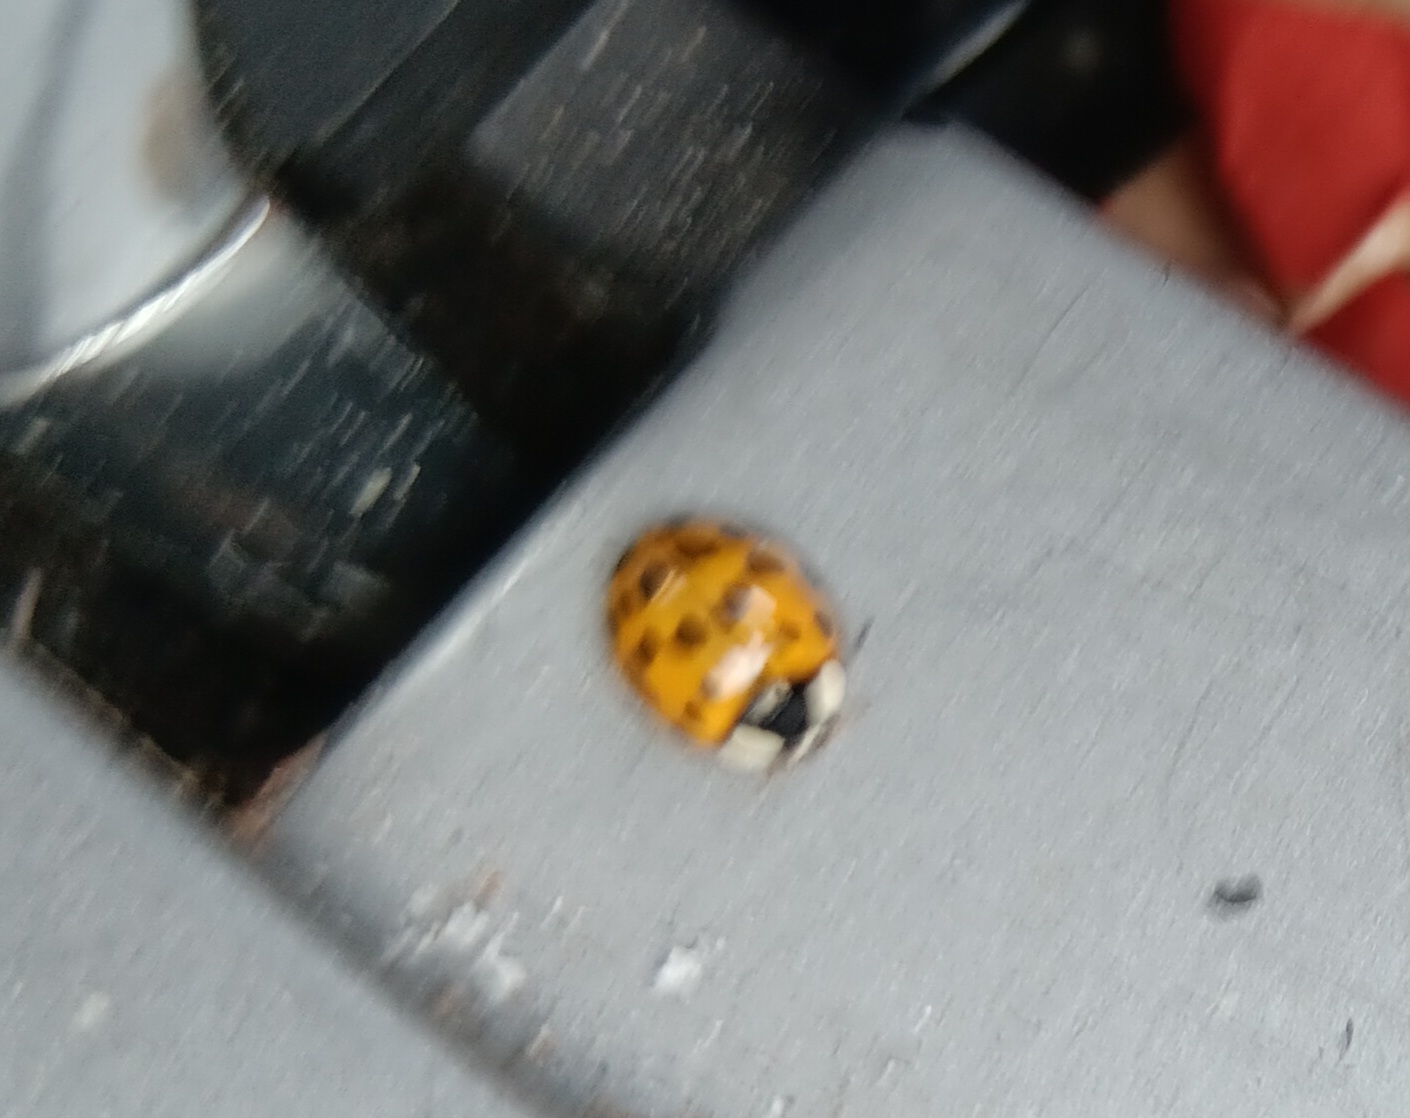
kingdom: Animalia
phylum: Arthropoda
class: Insecta
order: Coleoptera
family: Coccinellidae
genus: Harmonia
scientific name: Harmonia axyridis
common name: Harlekinmariehøne
